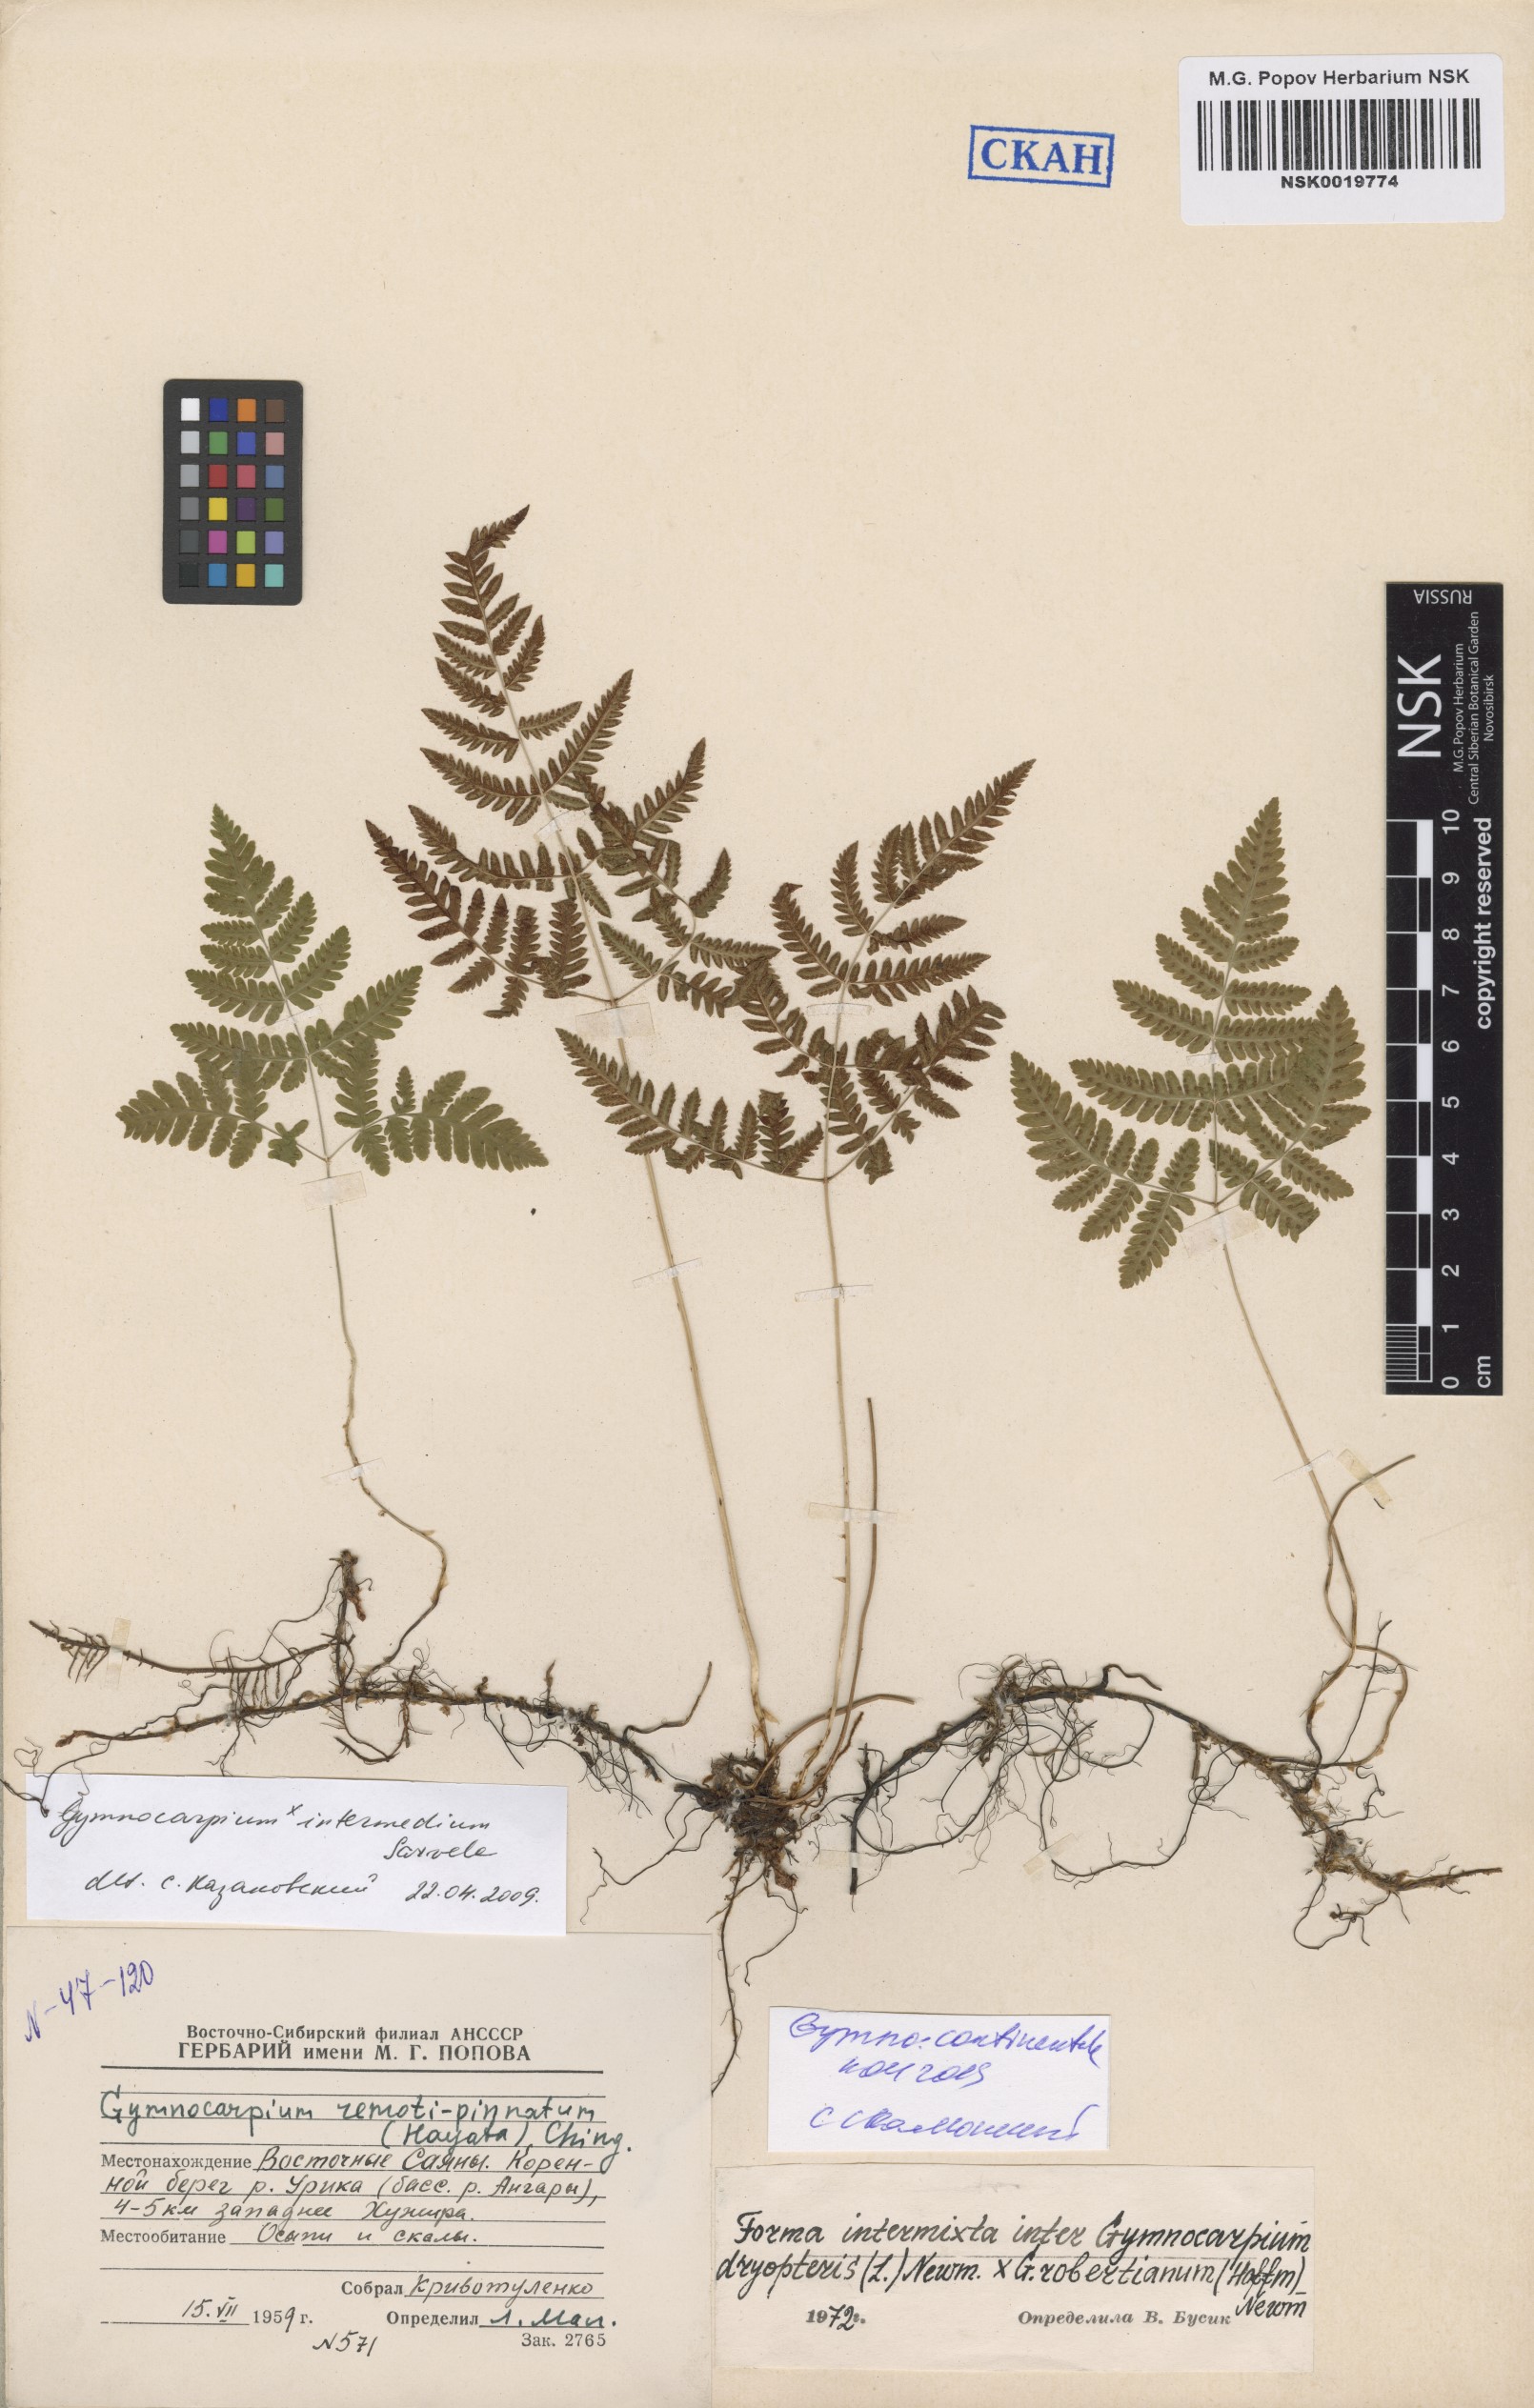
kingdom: Plantae
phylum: Tracheophyta
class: Polypodiopsida
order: Polypodiales
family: Cystopteridaceae
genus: Gymnocarpium
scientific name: Gymnocarpium dryopteris
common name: Oak fern
